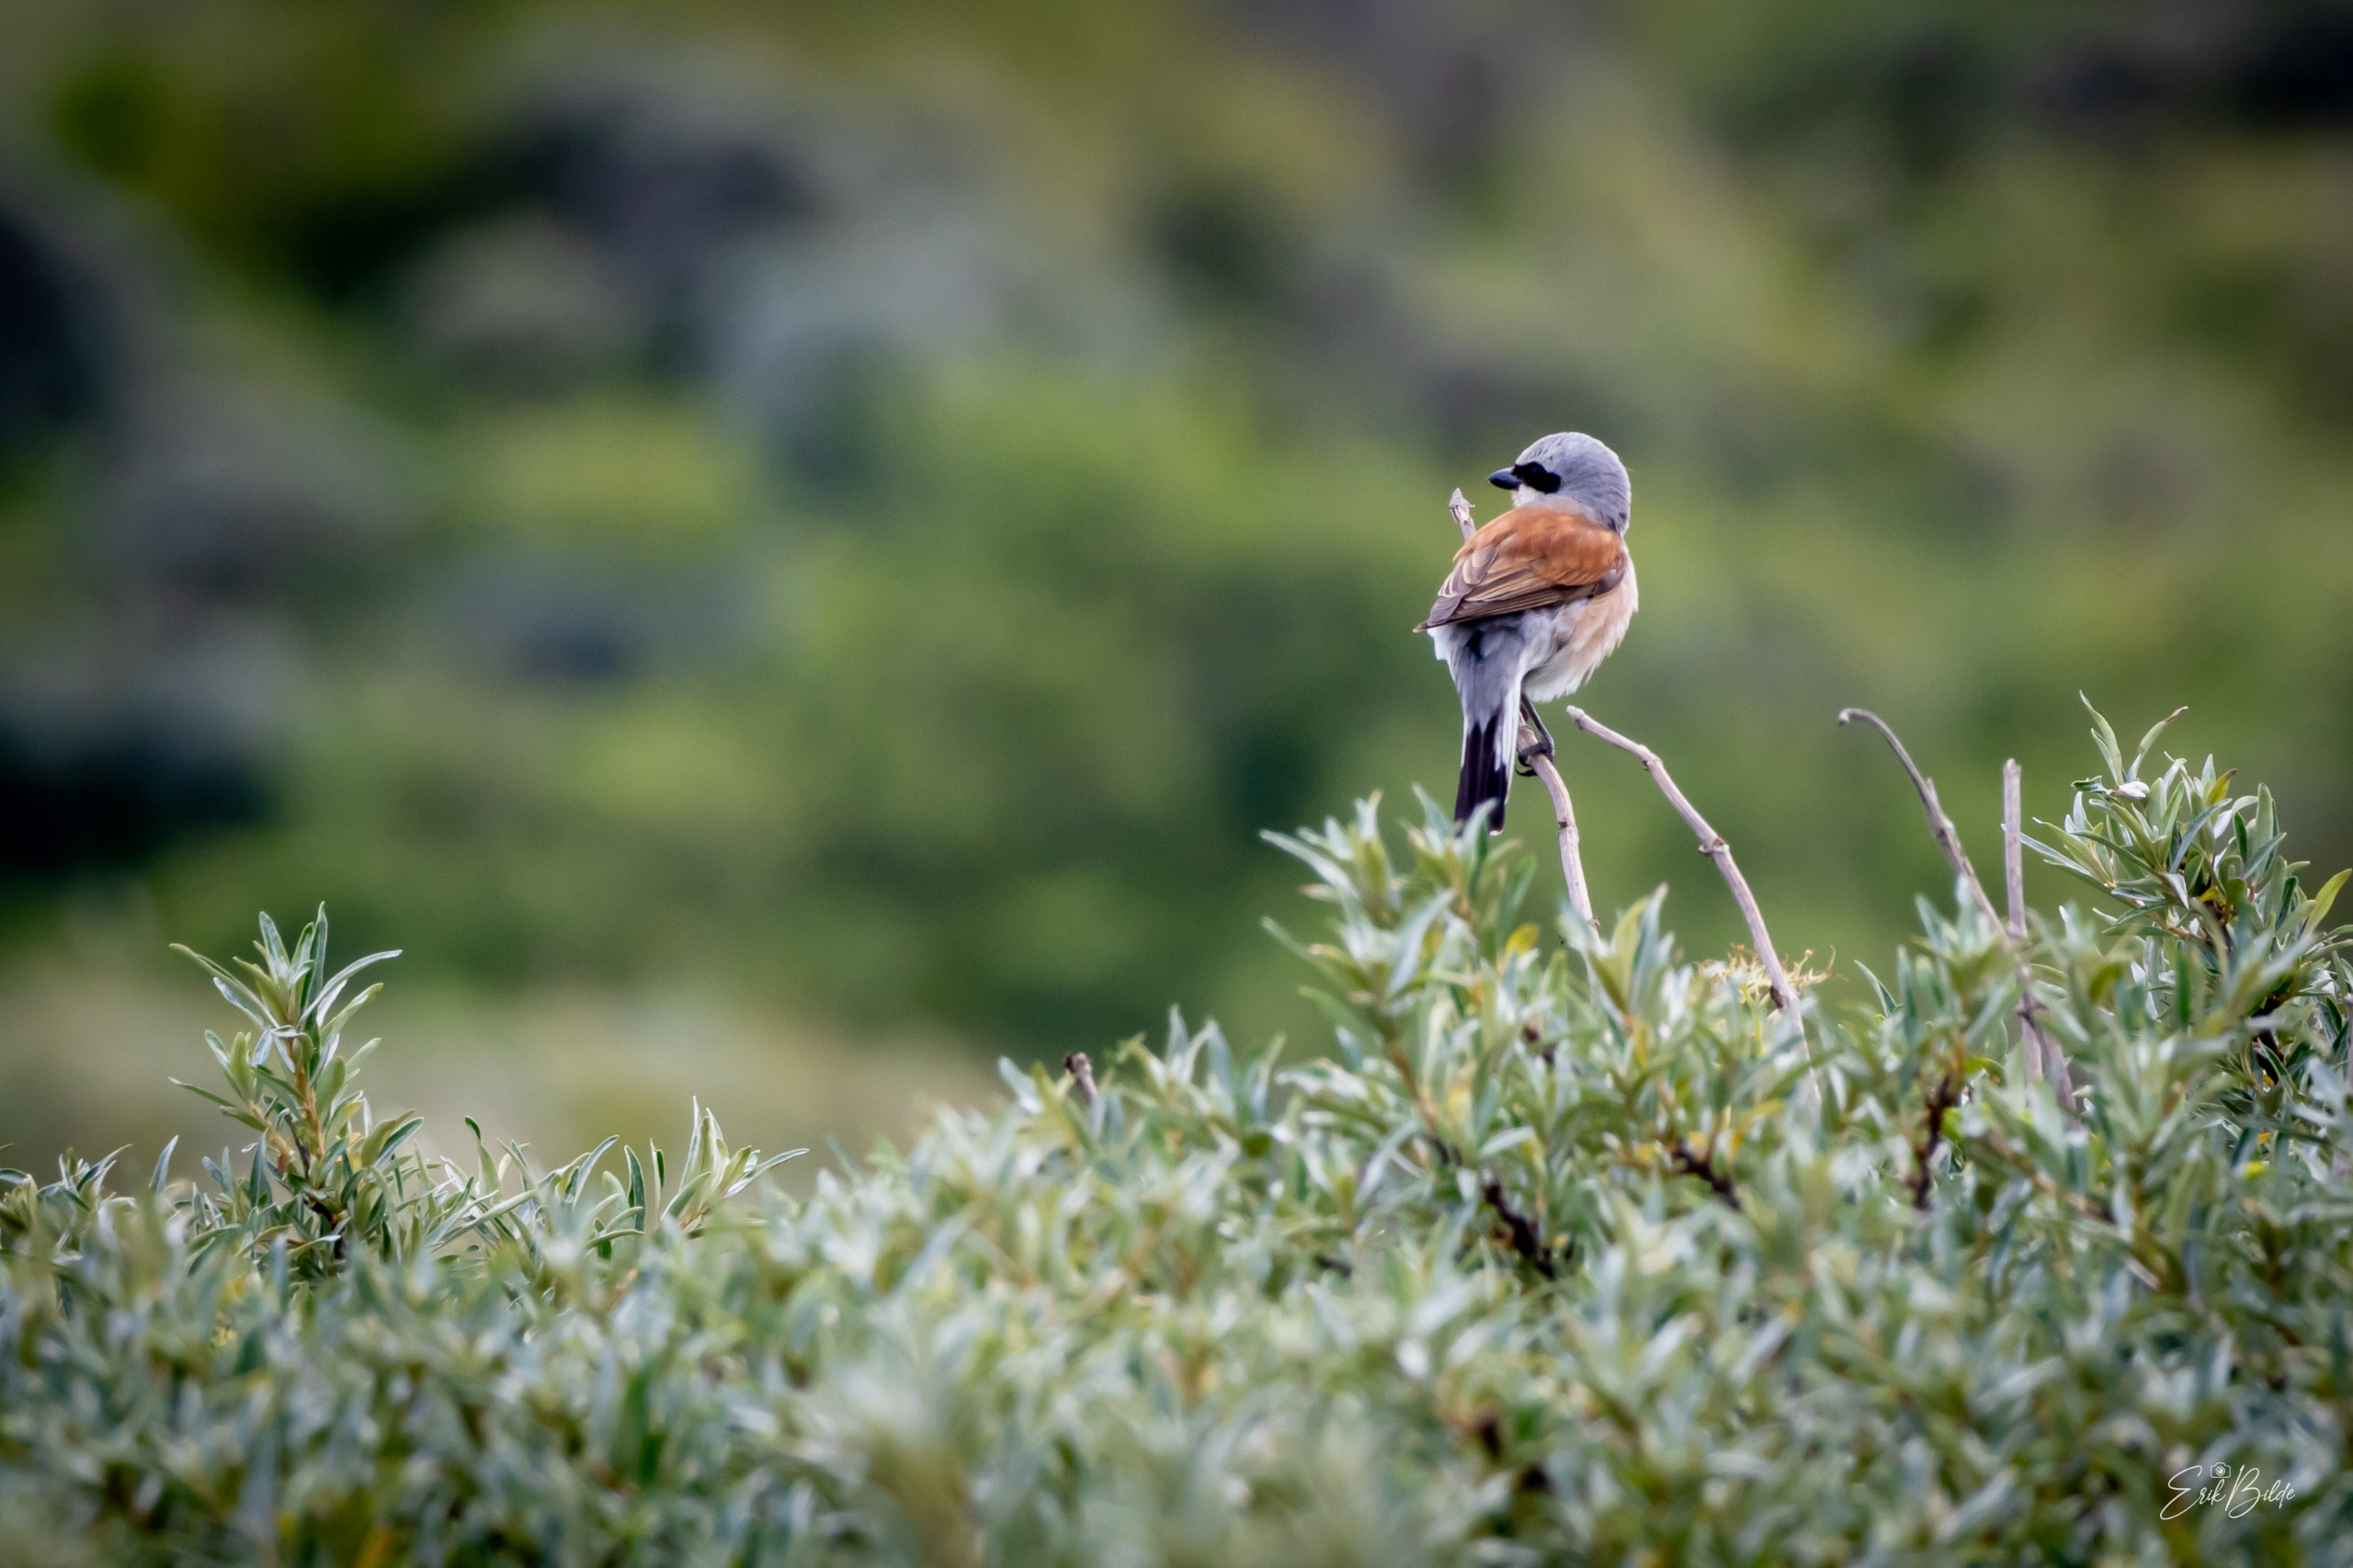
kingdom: Animalia
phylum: Chordata
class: Aves
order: Passeriformes
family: Laniidae
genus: Lanius
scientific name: Lanius collurio
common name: Rødrygget tornskade
